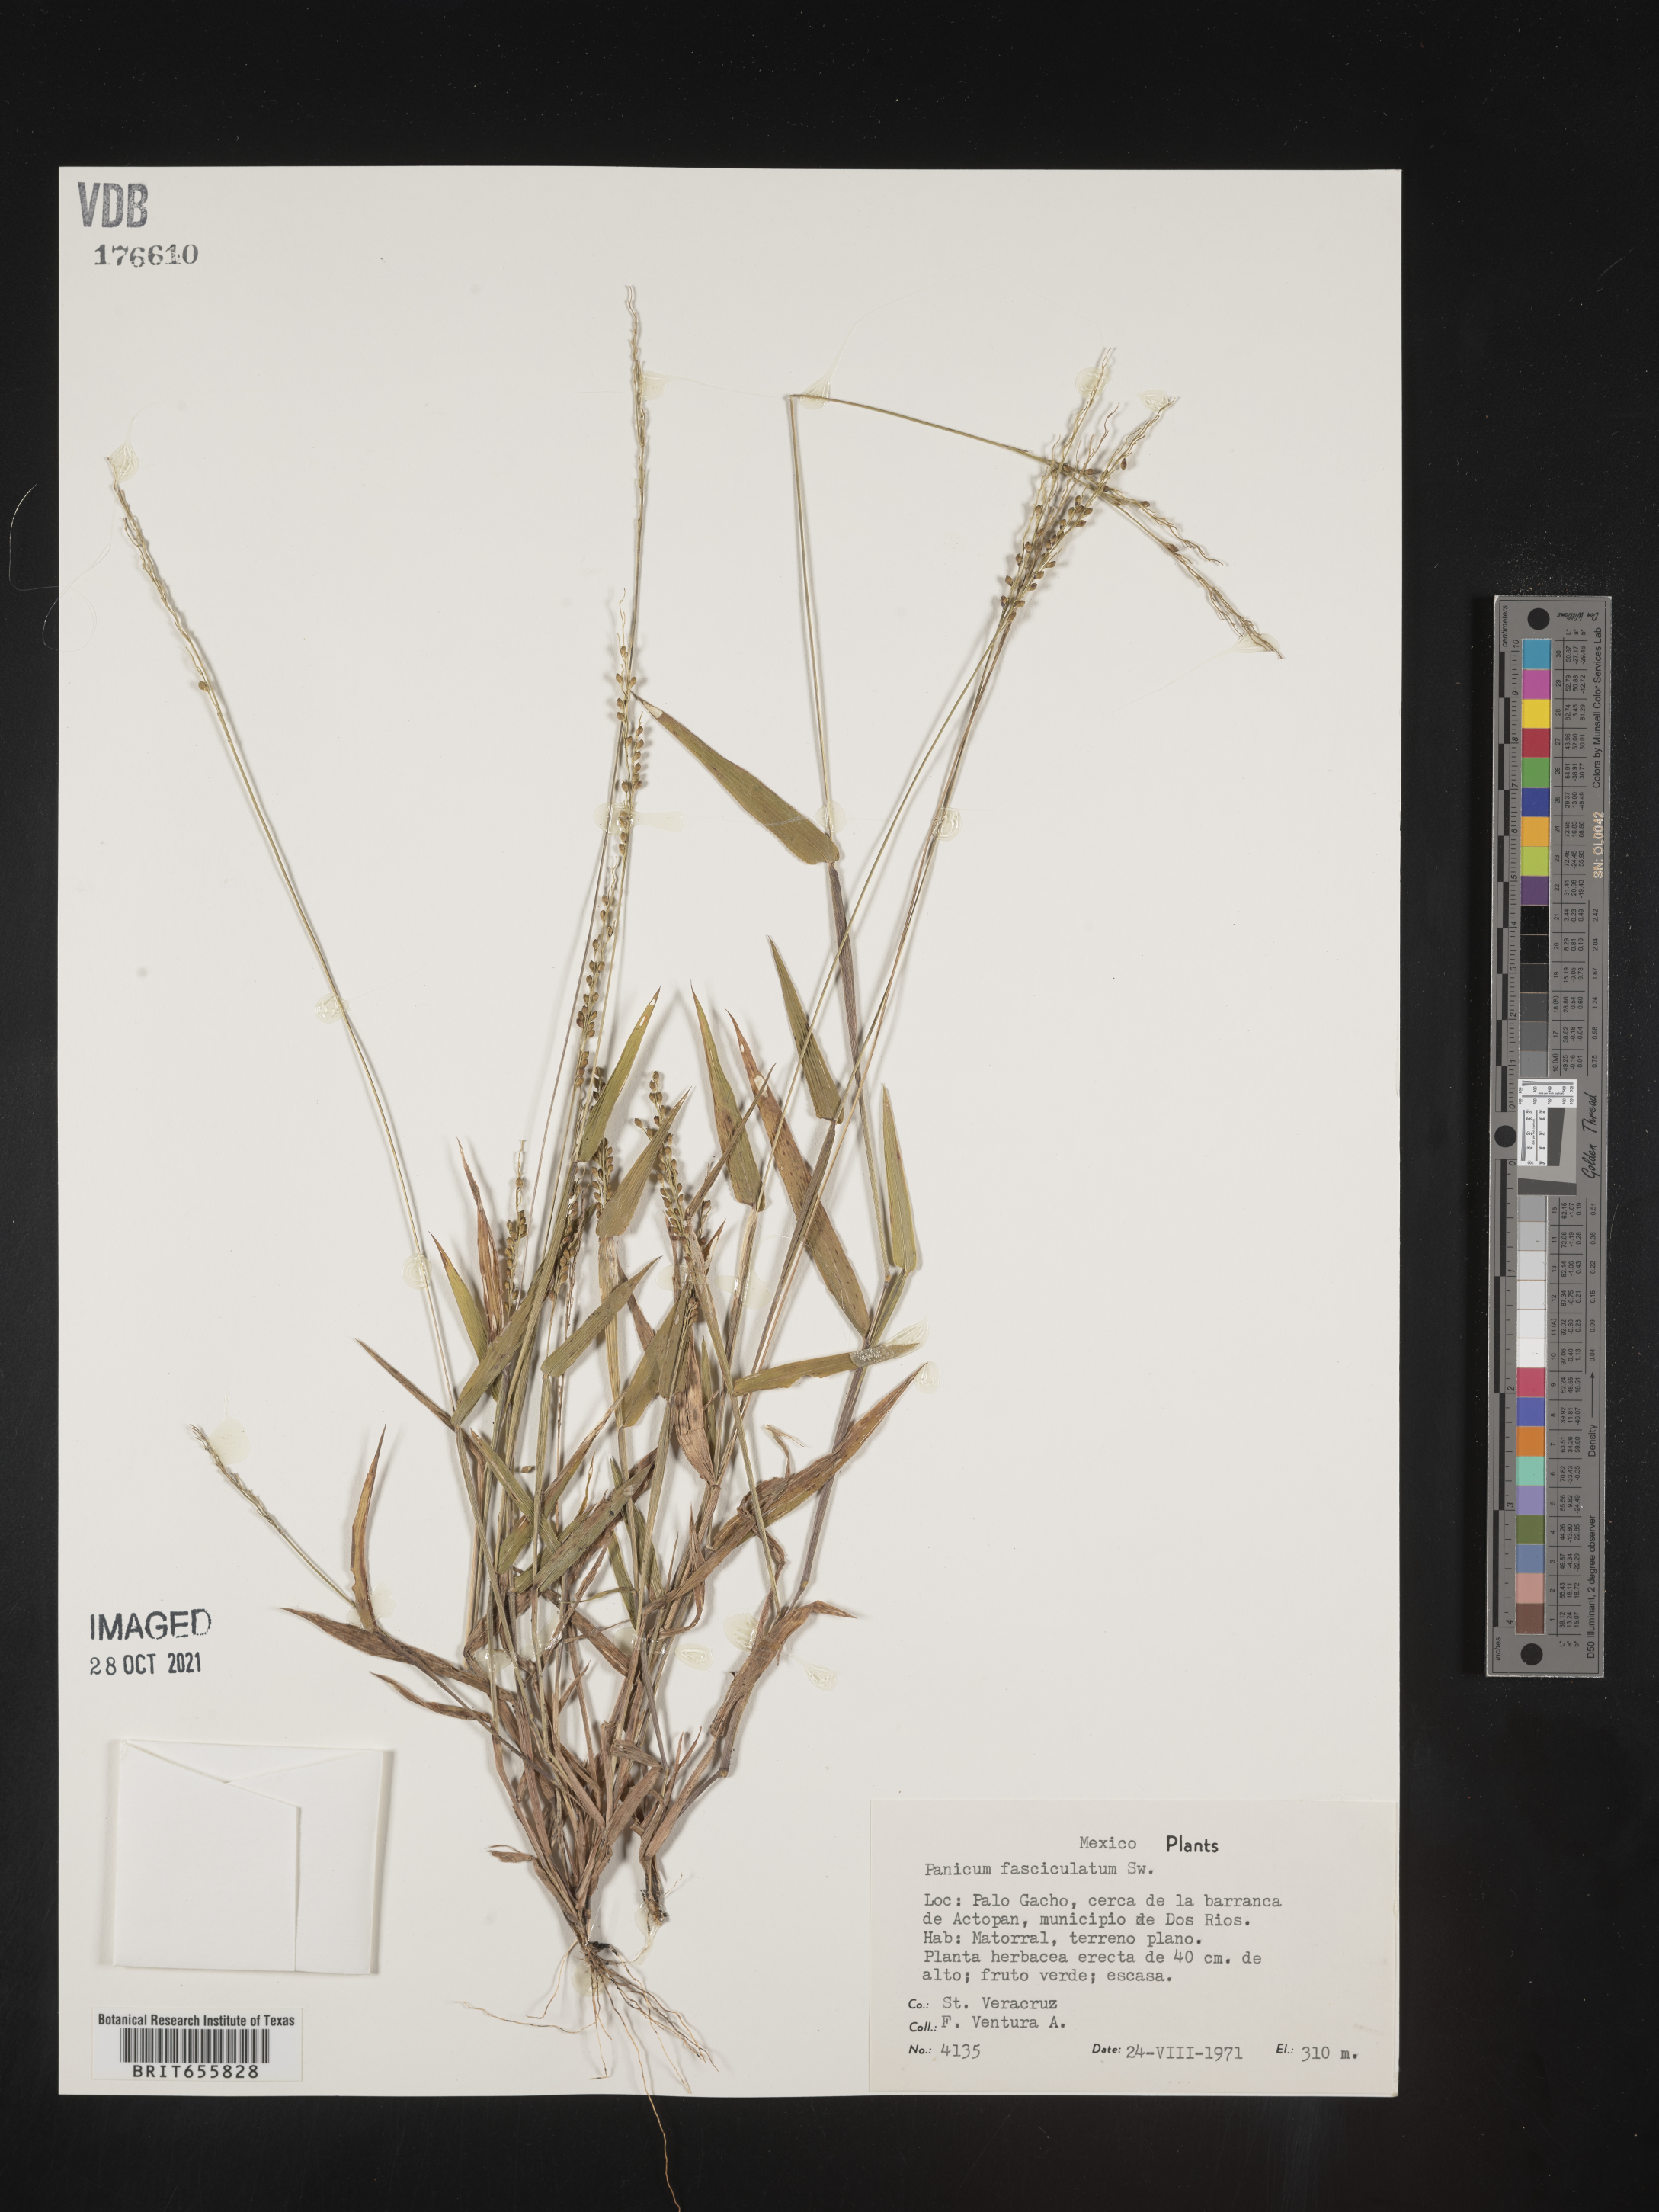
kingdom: Plantae
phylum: Tracheophyta
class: Liliopsida
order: Poales
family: Poaceae
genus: Panicum
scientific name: Panicum
